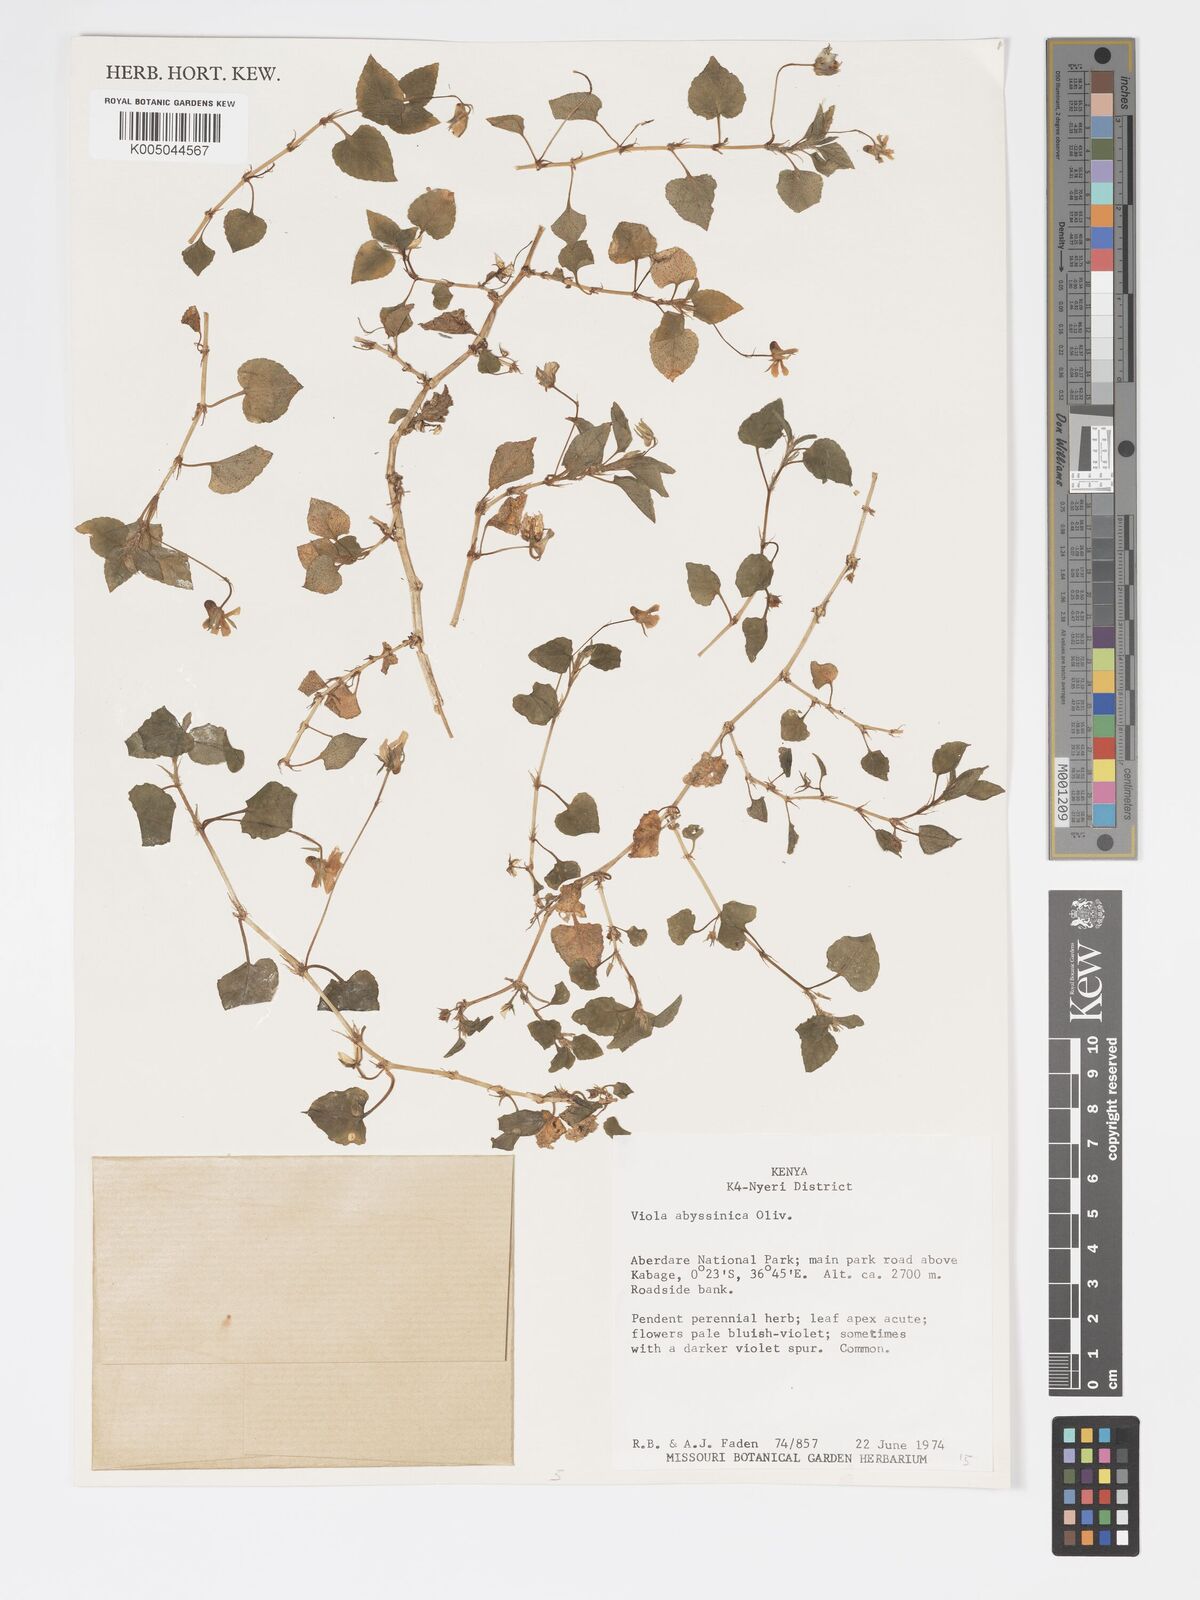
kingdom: Plantae
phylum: Tracheophyta
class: Magnoliopsida
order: Malpighiales
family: Violaceae
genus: Viola
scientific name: Viola abyssinica
